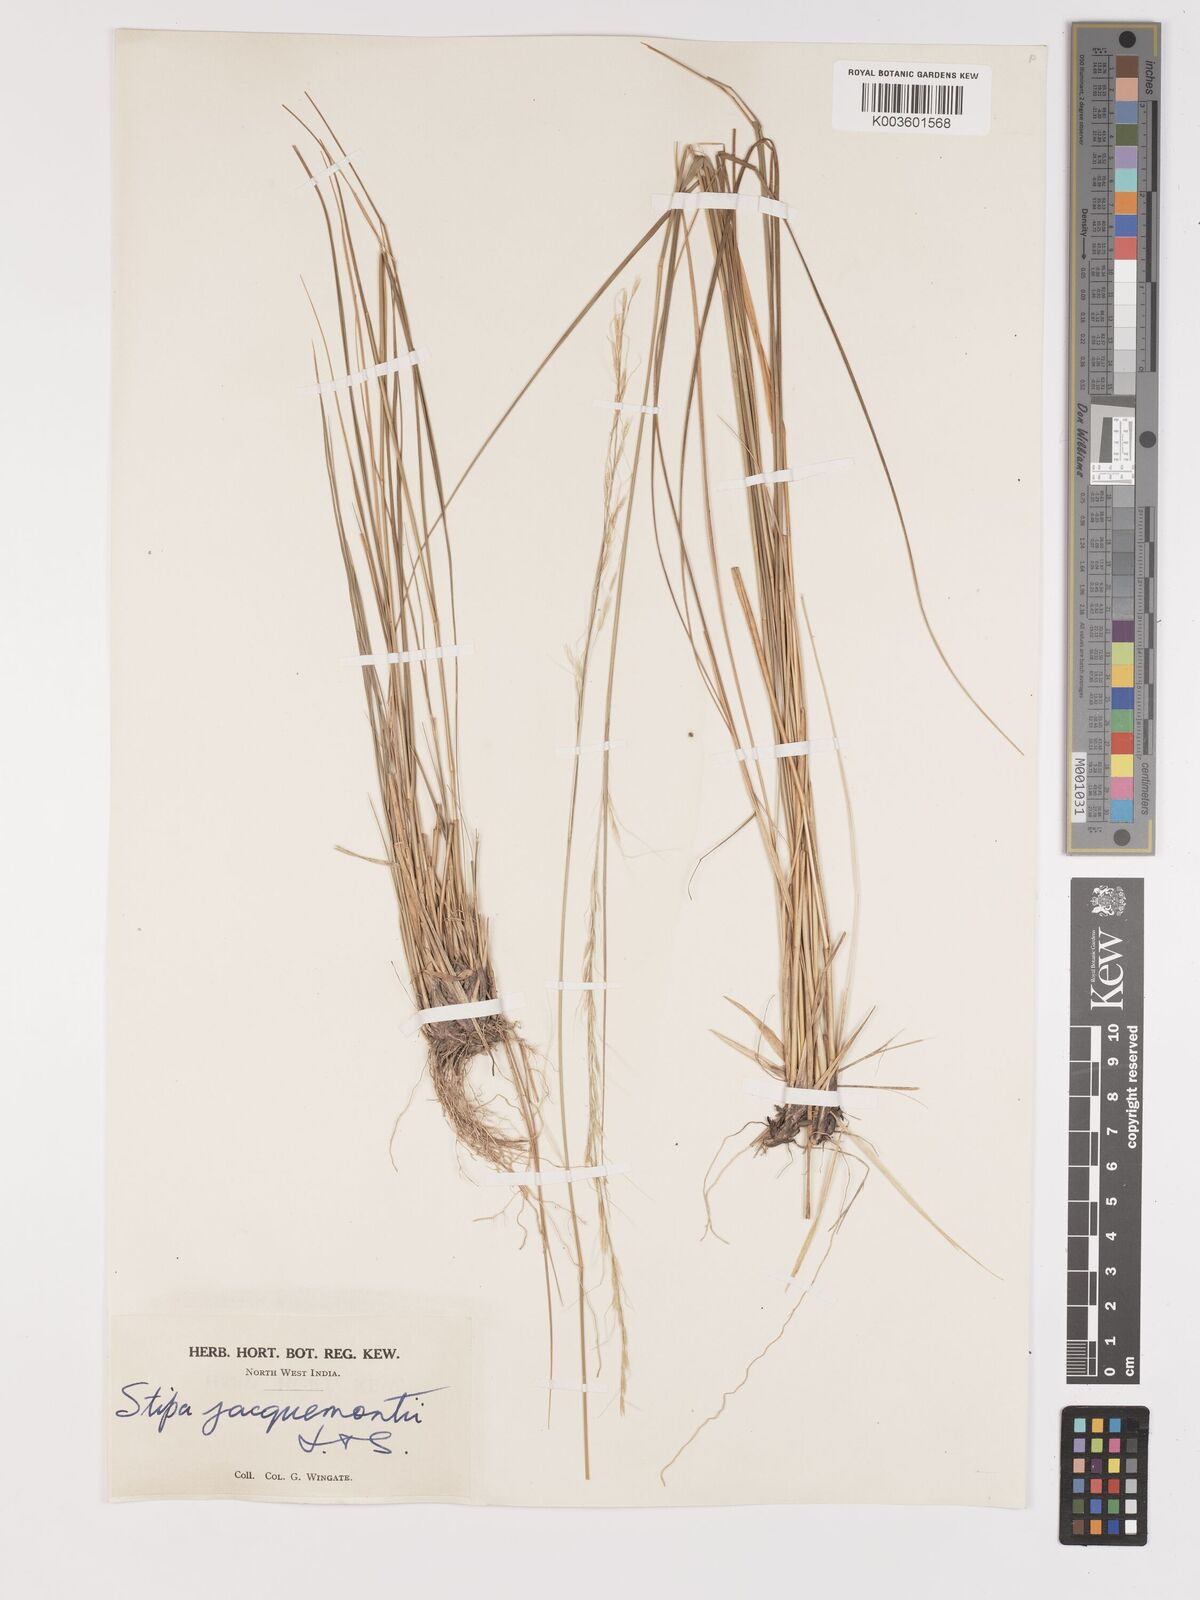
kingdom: Plantae
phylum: Tracheophyta
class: Liliopsida
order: Poales
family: Poaceae
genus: Achnatherum
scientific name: Achnatherum jacquemontii
